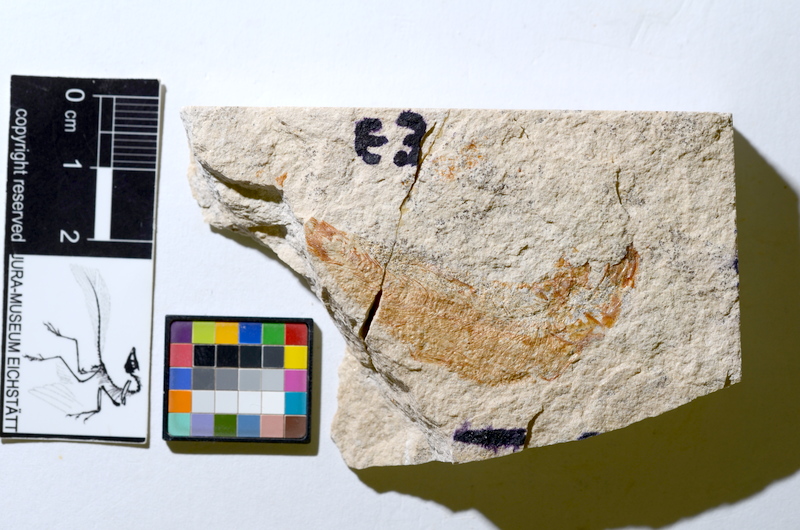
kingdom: Animalia
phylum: Chordata
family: Ascalaboidae
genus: Tharsis
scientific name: Tharsis dubius
